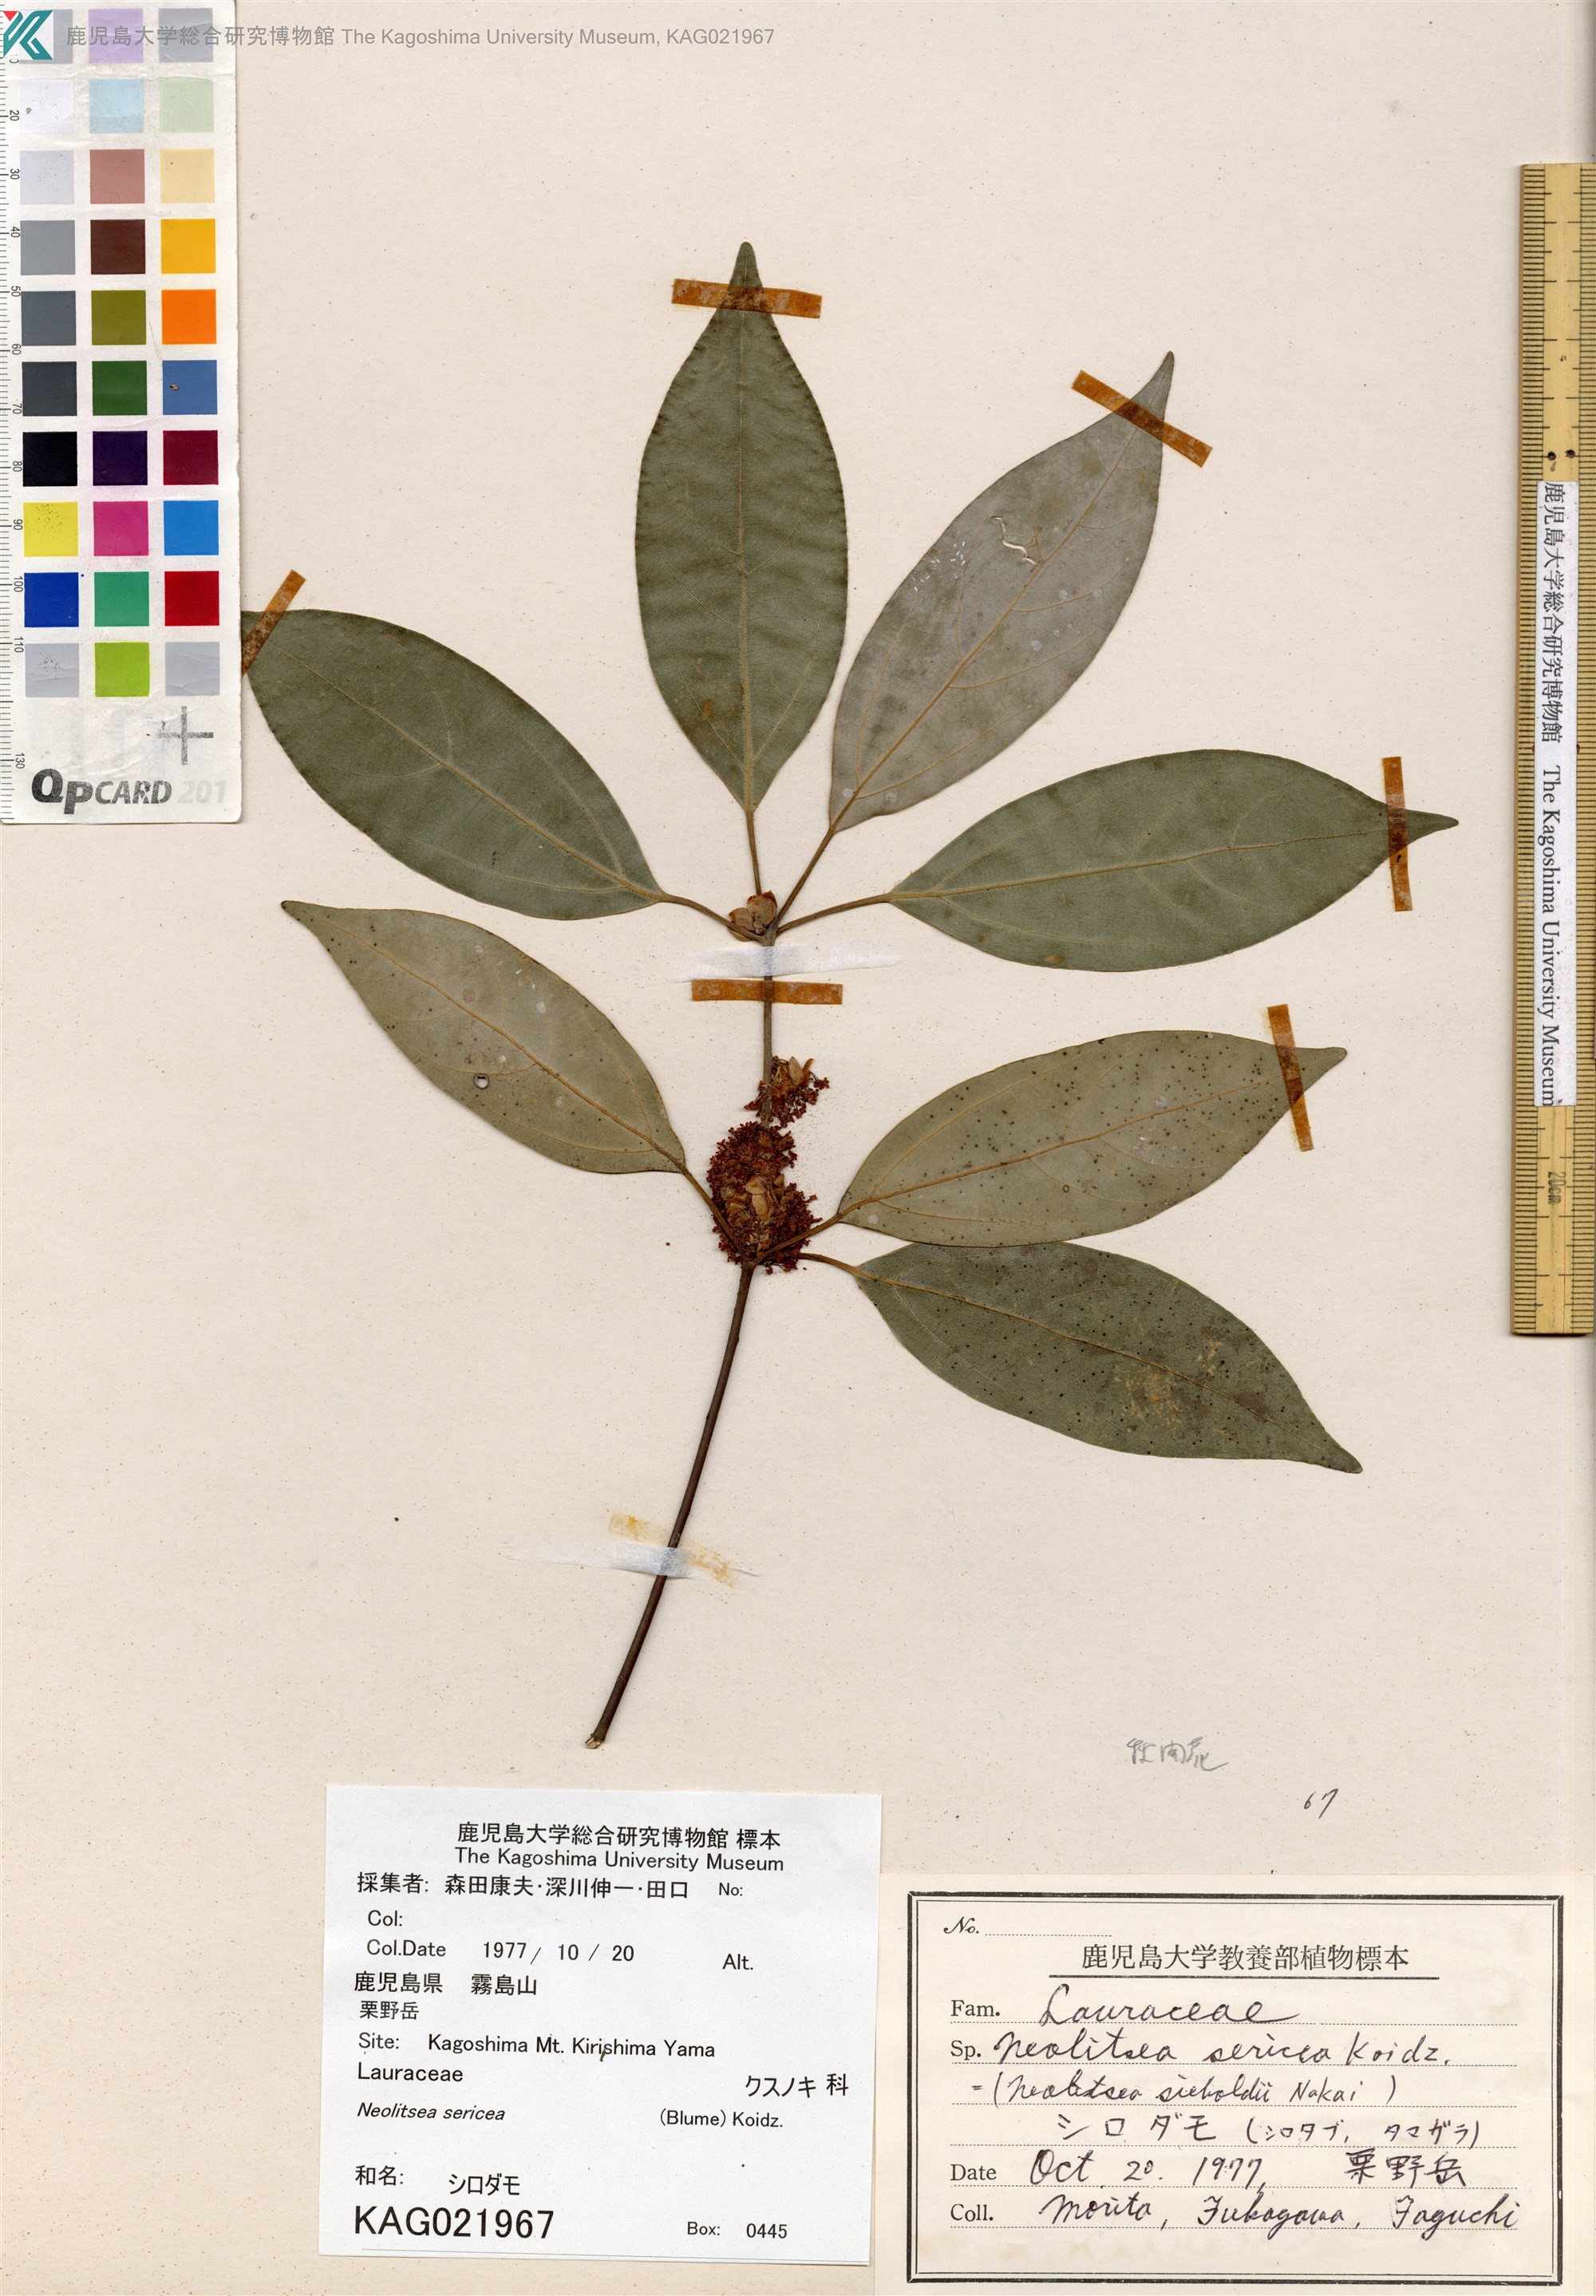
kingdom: Plantae
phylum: Tracheophyta
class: Magnoliopsida
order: Laurales
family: Lauraceae
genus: Neolitsea
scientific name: Neolitsea sericea
